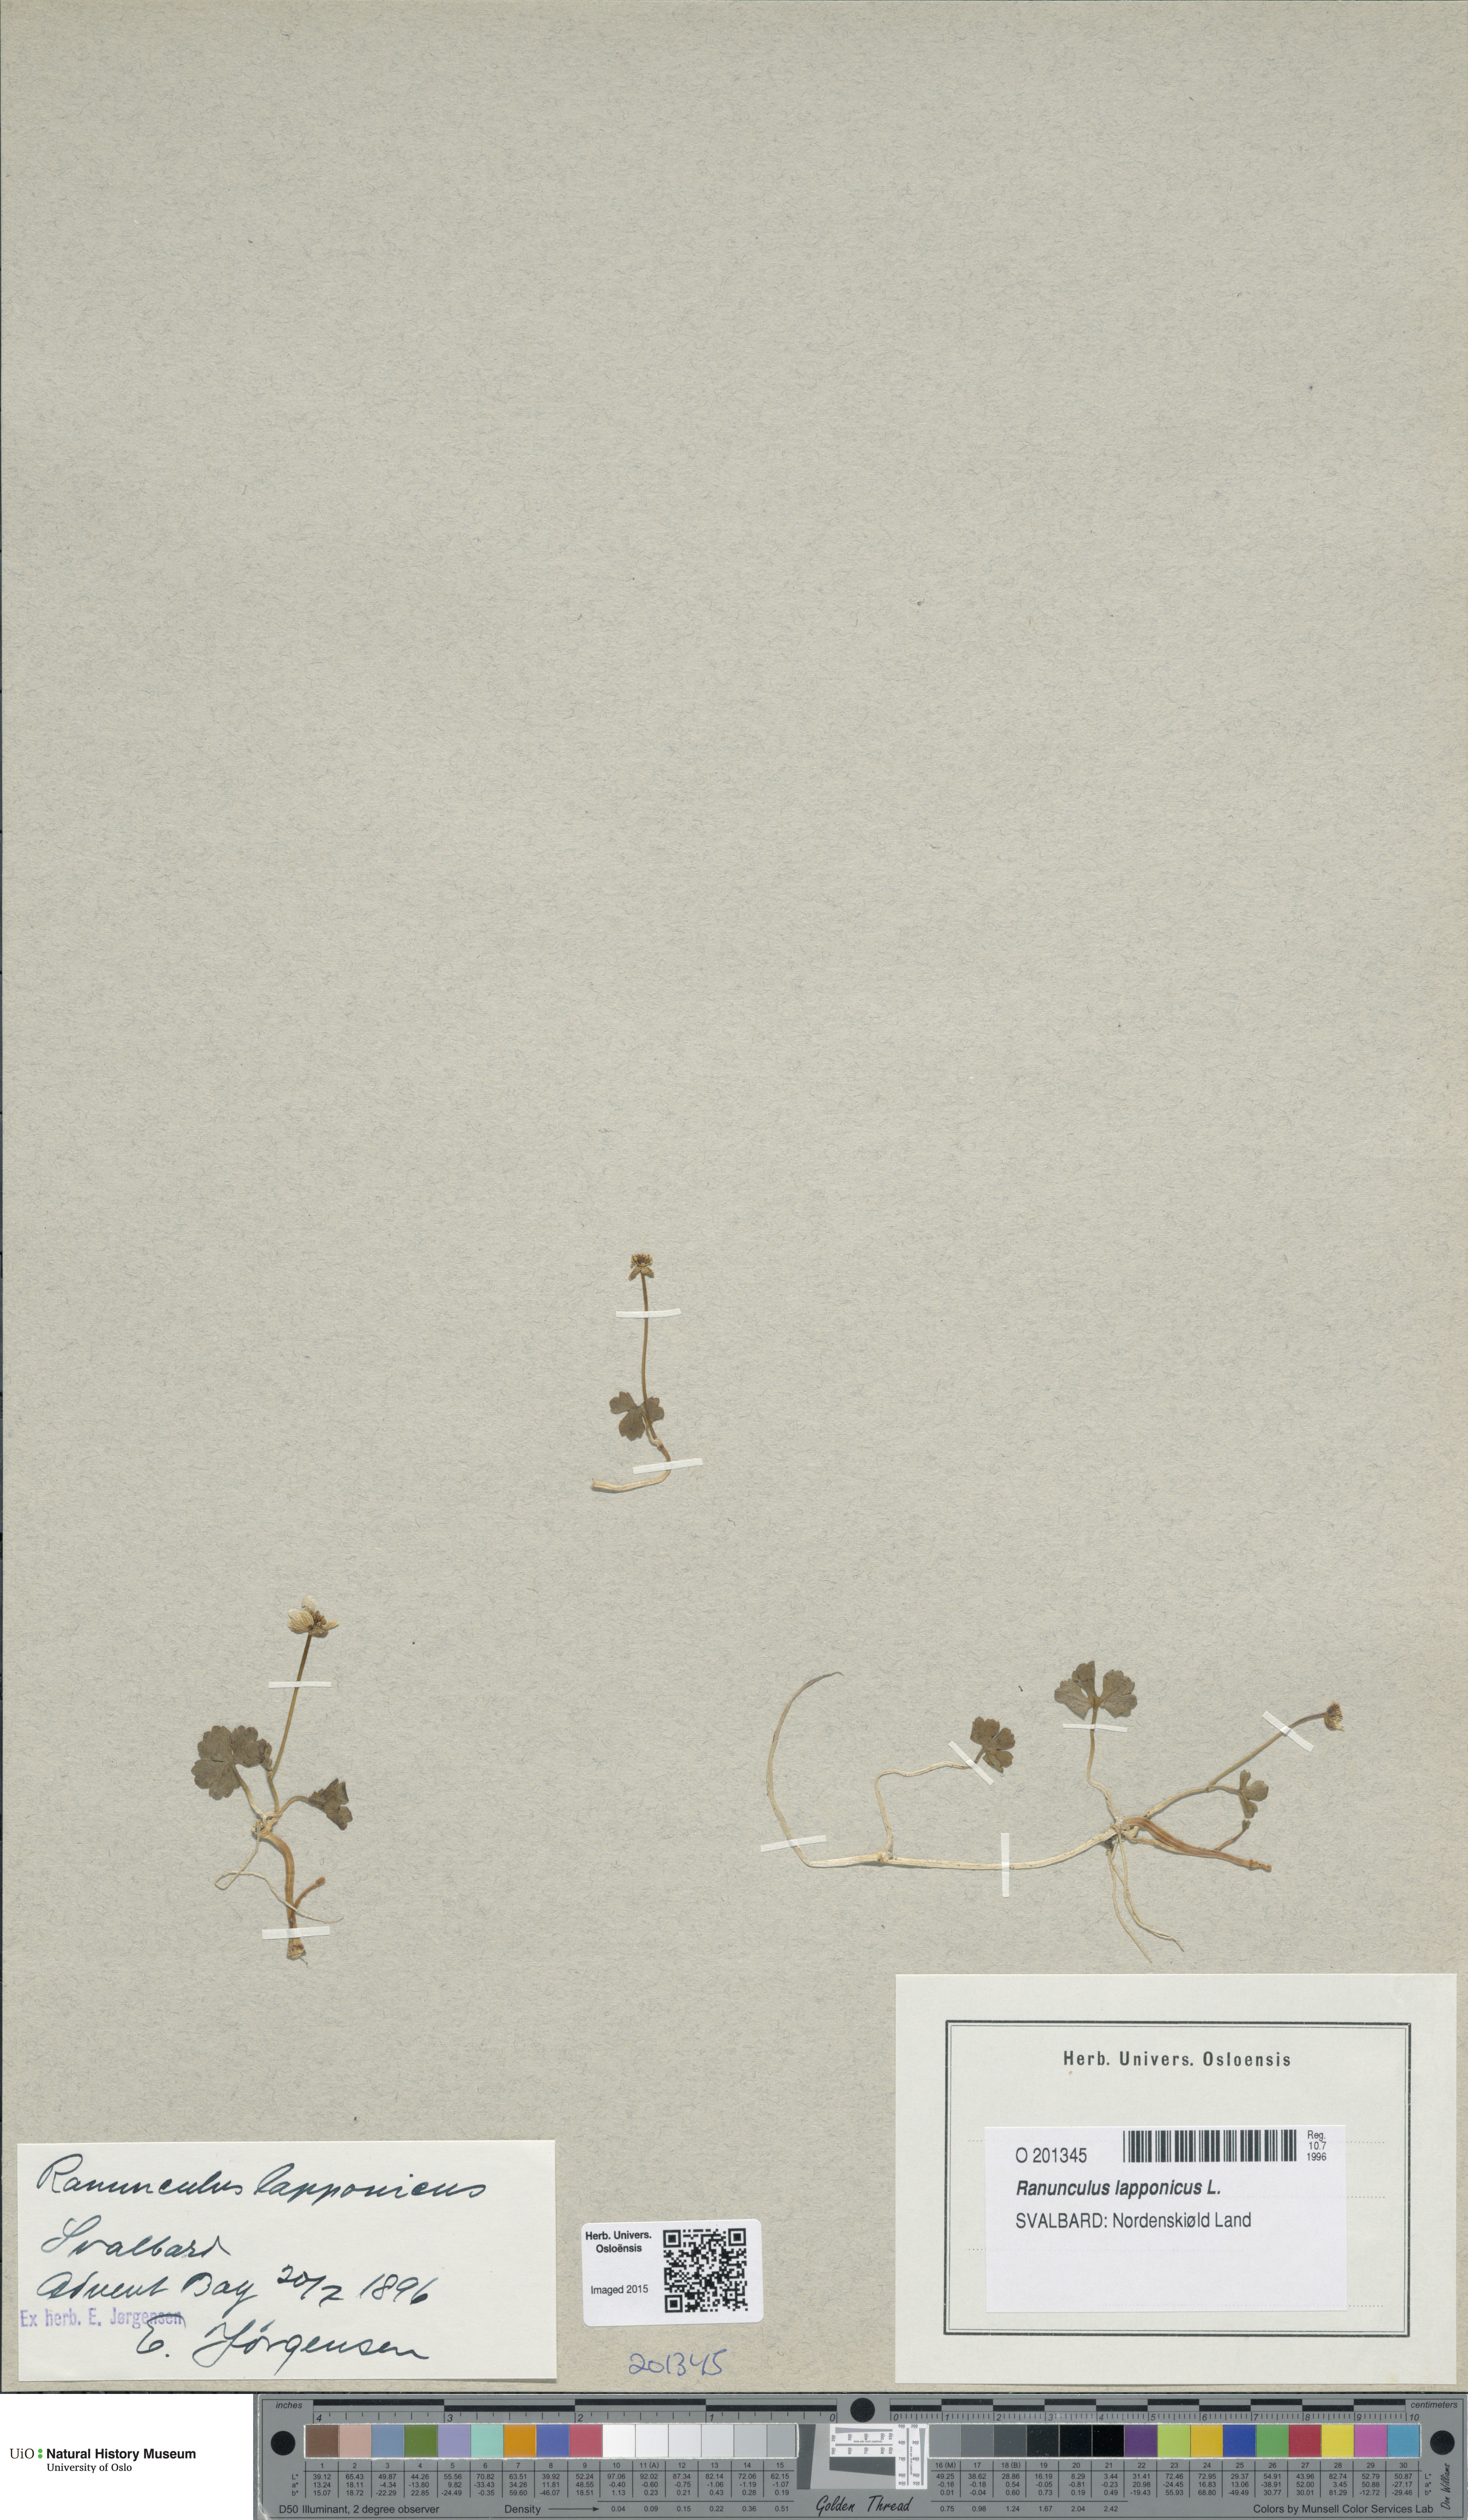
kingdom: Plantae
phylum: Tracheophyta
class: Magnoliopsida
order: Ranunculales
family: Ranunculaceae
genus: Coptidium
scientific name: Coptidium lapponicum
